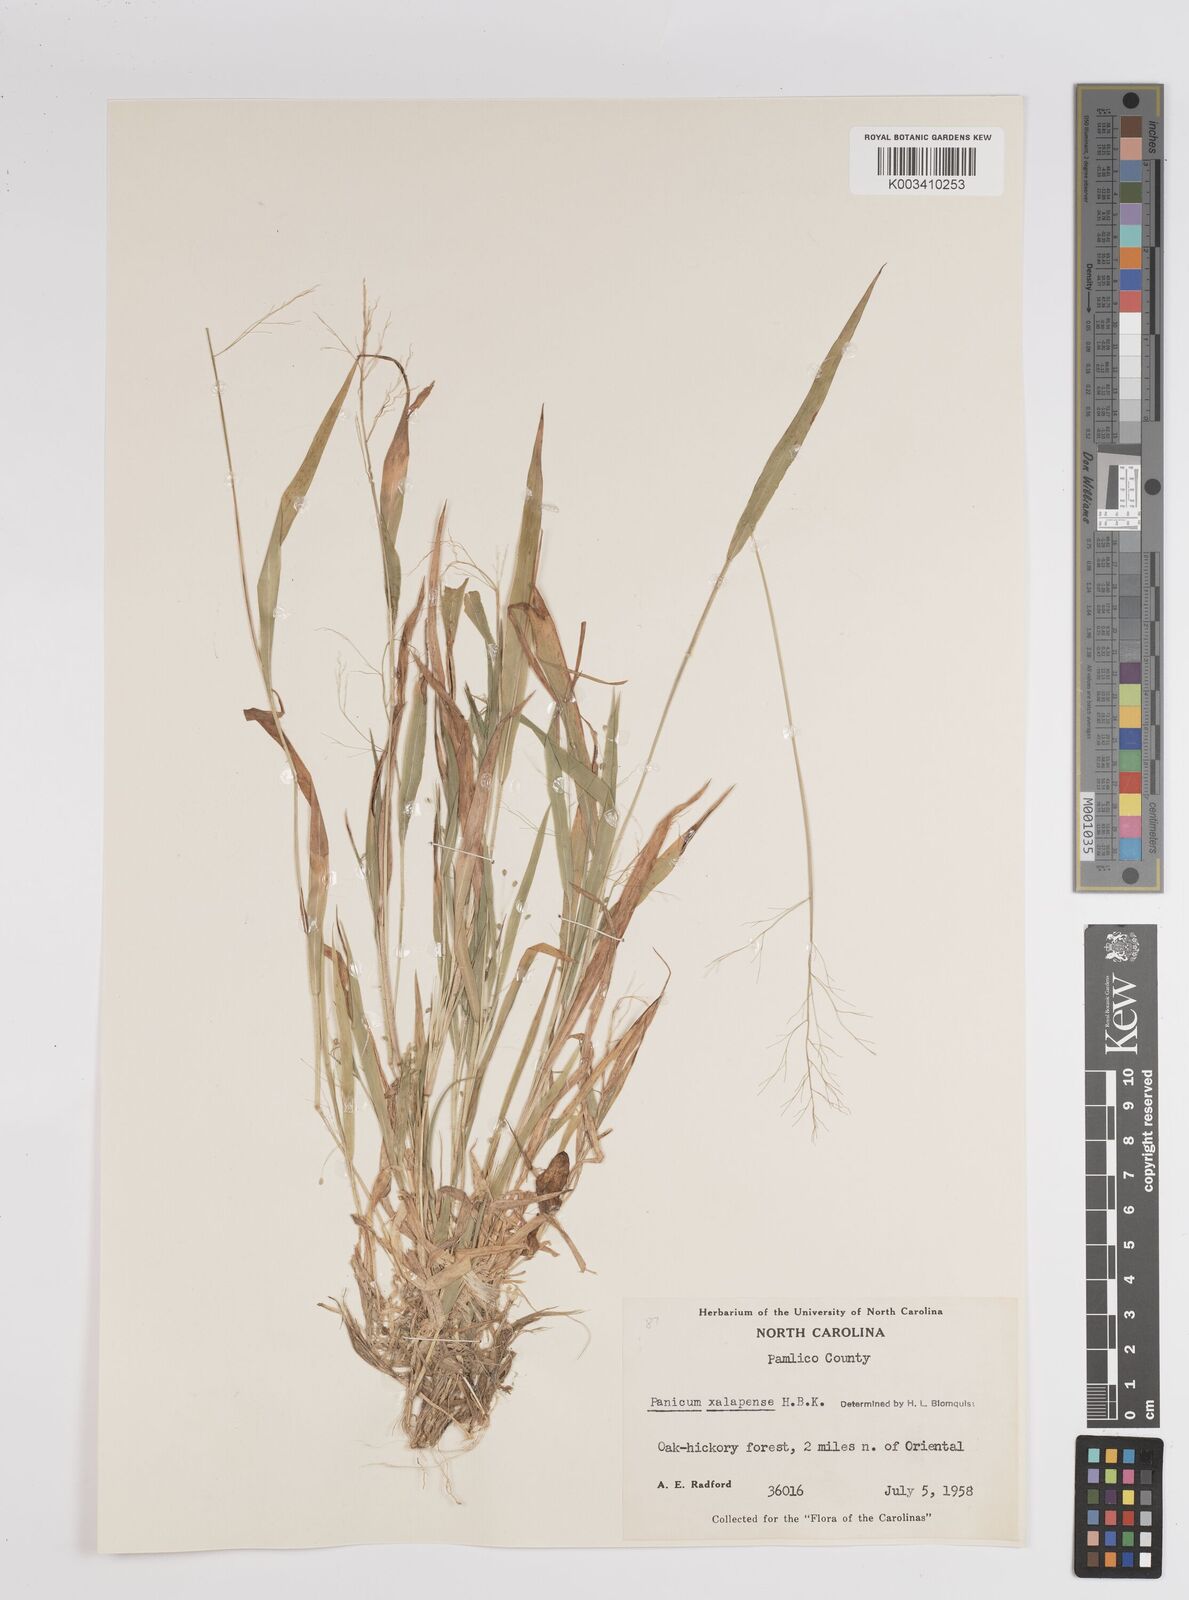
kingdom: Plantae
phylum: Tracheophyta
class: Liliopsida
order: Poales
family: Poaceae
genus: Dichanthelium
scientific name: Dichanthelium laxiflorum
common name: Soft-tuft panic grass
